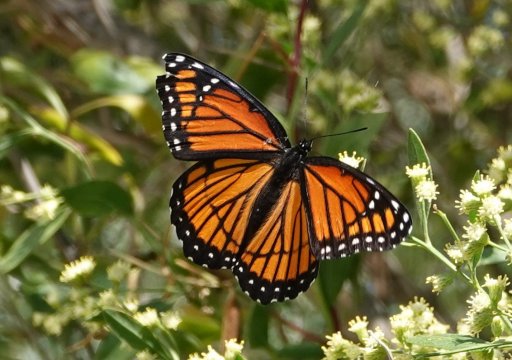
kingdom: Animalia
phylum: Arthropoda
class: Insecta
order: Lepidoptera
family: Nymphalidae
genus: Limenitis
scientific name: Limenitis archippus
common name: Viceroy
